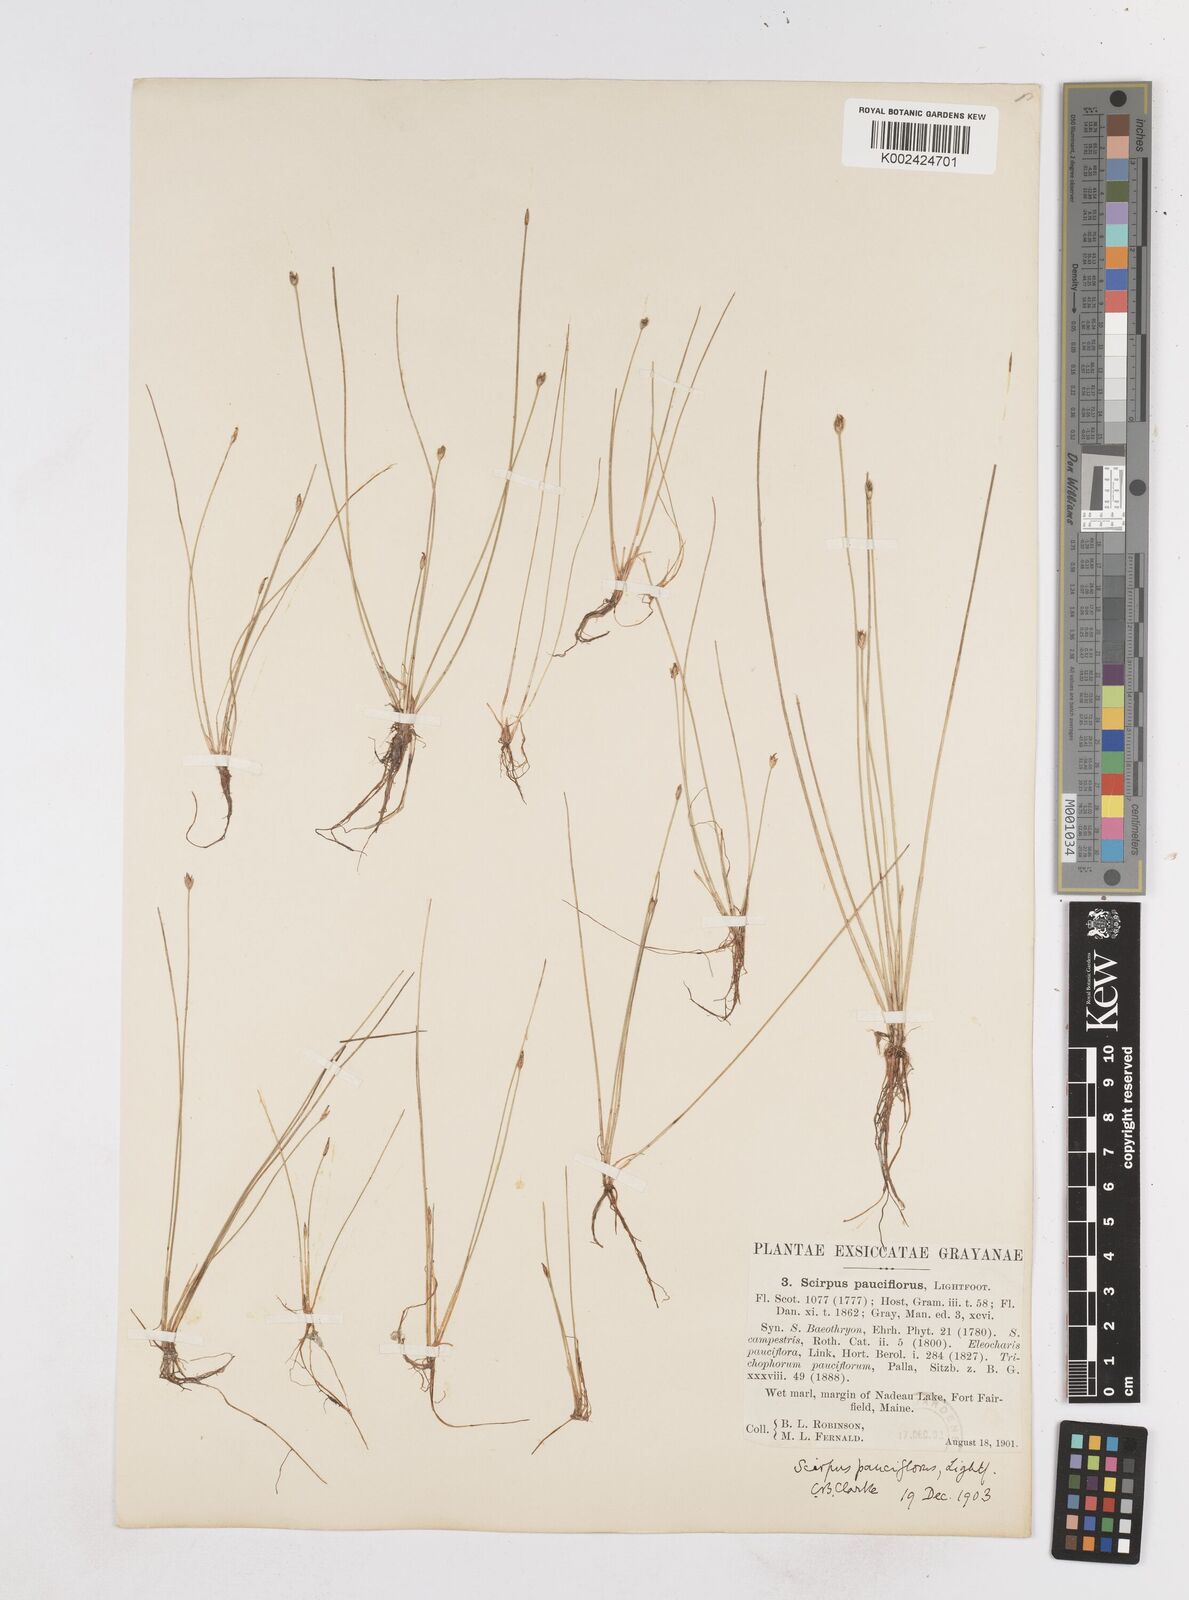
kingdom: Plantae
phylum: Tracheophyta
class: Liliopsida
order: Poales
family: Cyperaceae
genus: Eleocharis
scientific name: Eleocharis quinqueflora
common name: Few-flowered spike-rush
